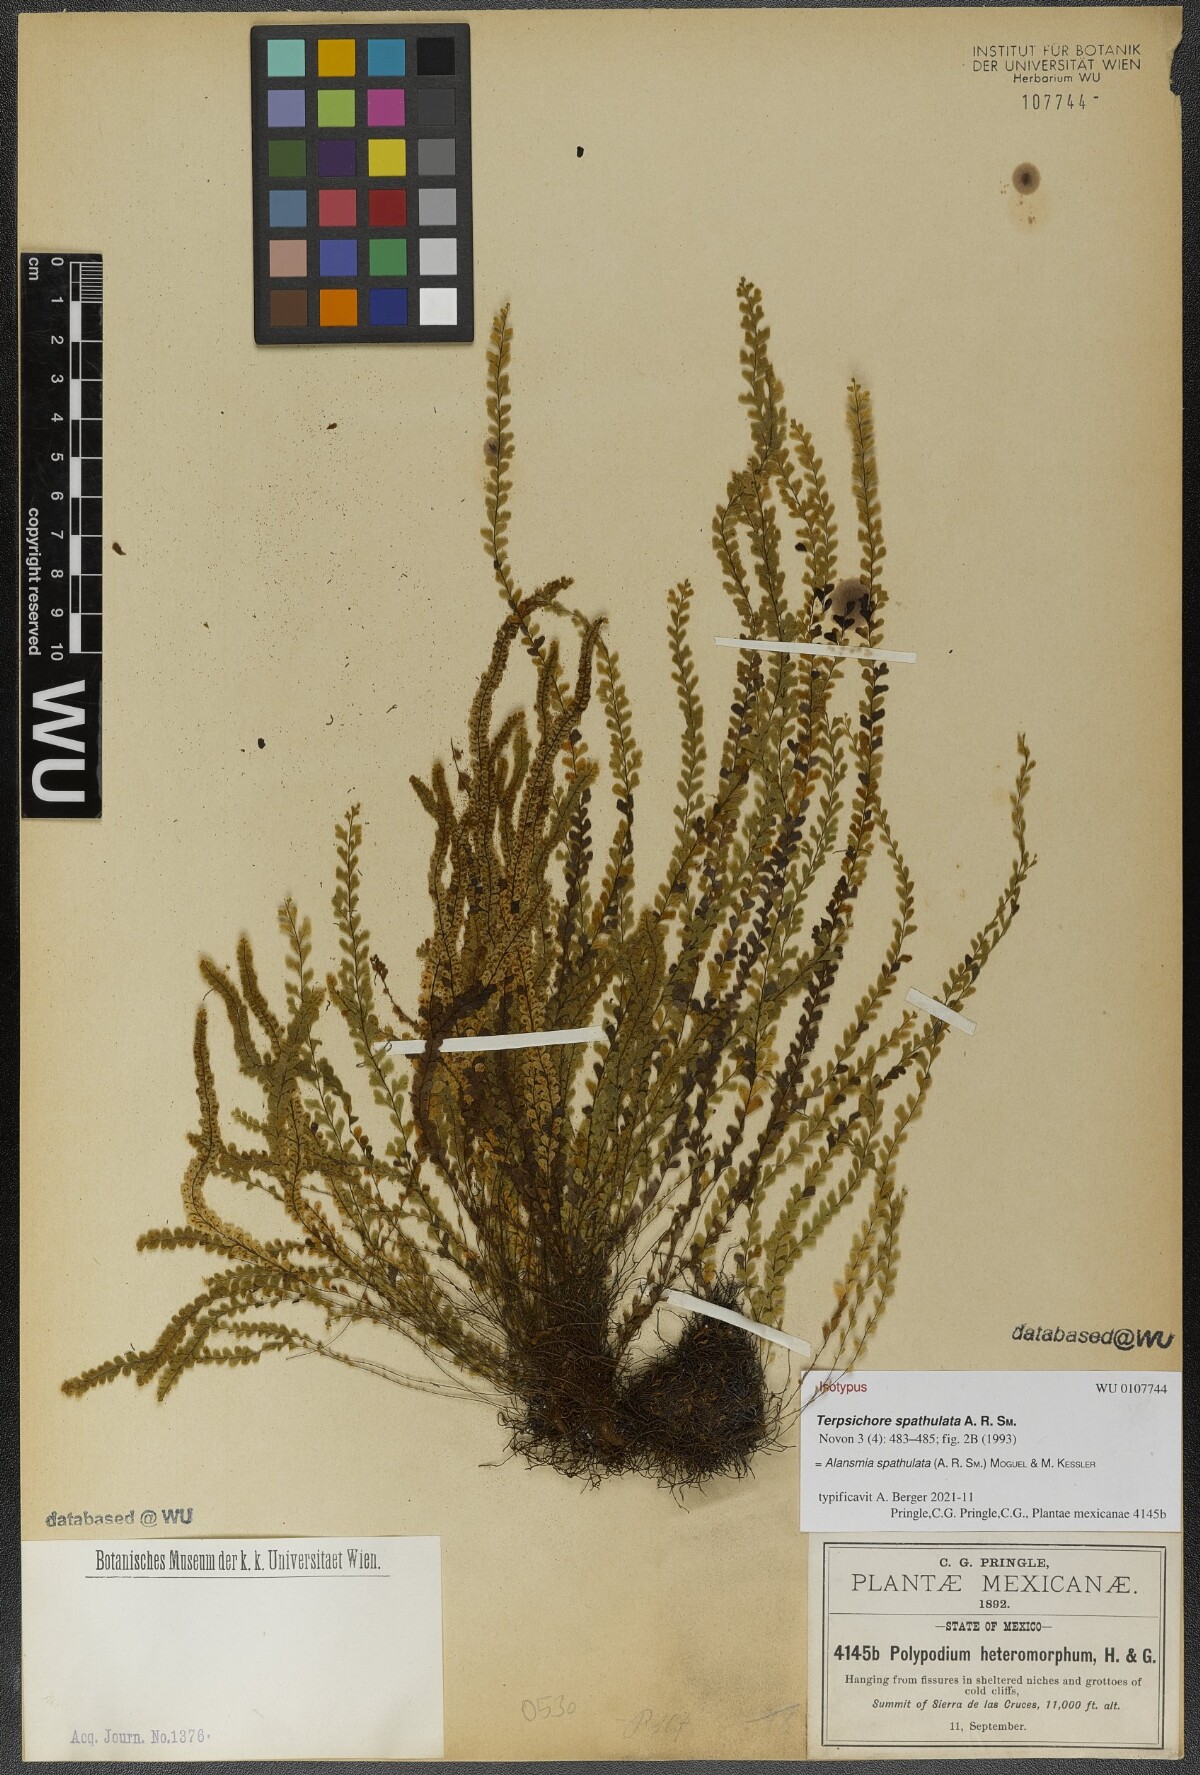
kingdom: Plantae
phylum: Tracheophyta
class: Polypodiopsida
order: Polypodiales
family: Polypodiaceae
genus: Alansmia
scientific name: Alansmia spathulata
